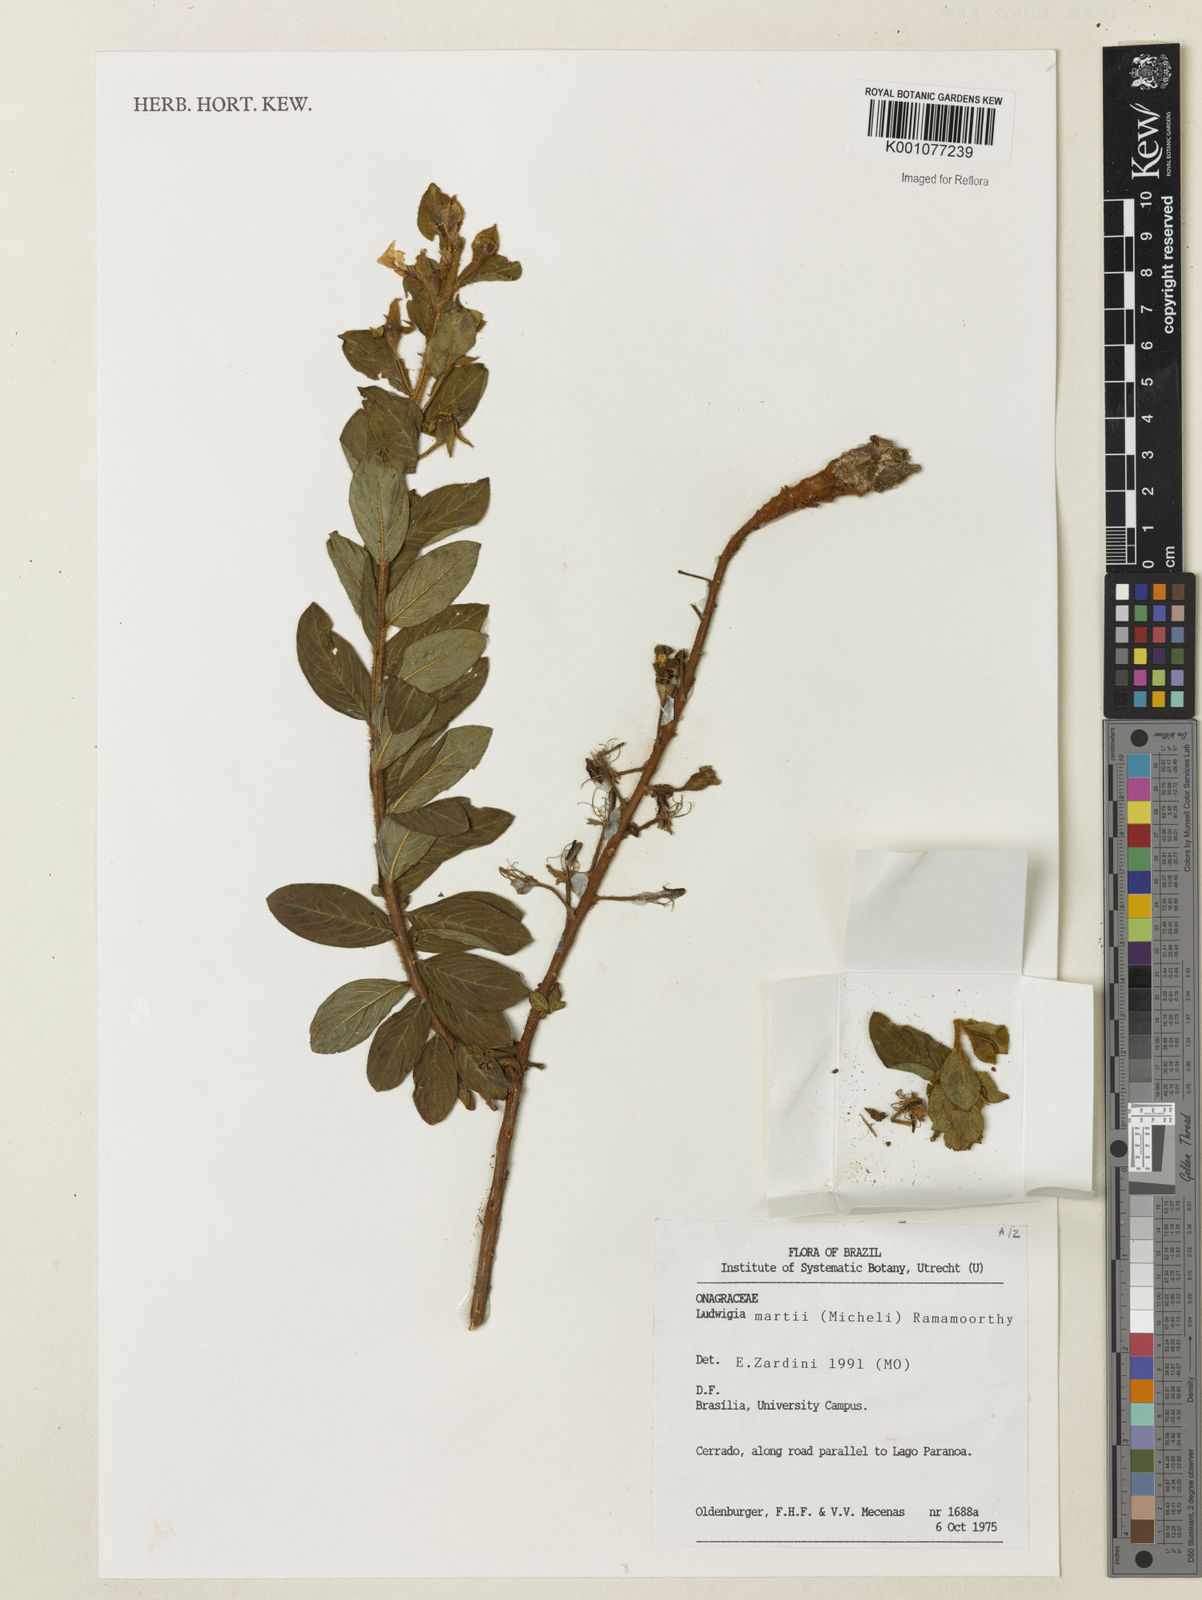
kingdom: Plantae
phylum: Tracheophyta
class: Magnoliopsida
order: Myrtales
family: Onagraceae
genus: Ludwigia
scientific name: Ludwigia martii
